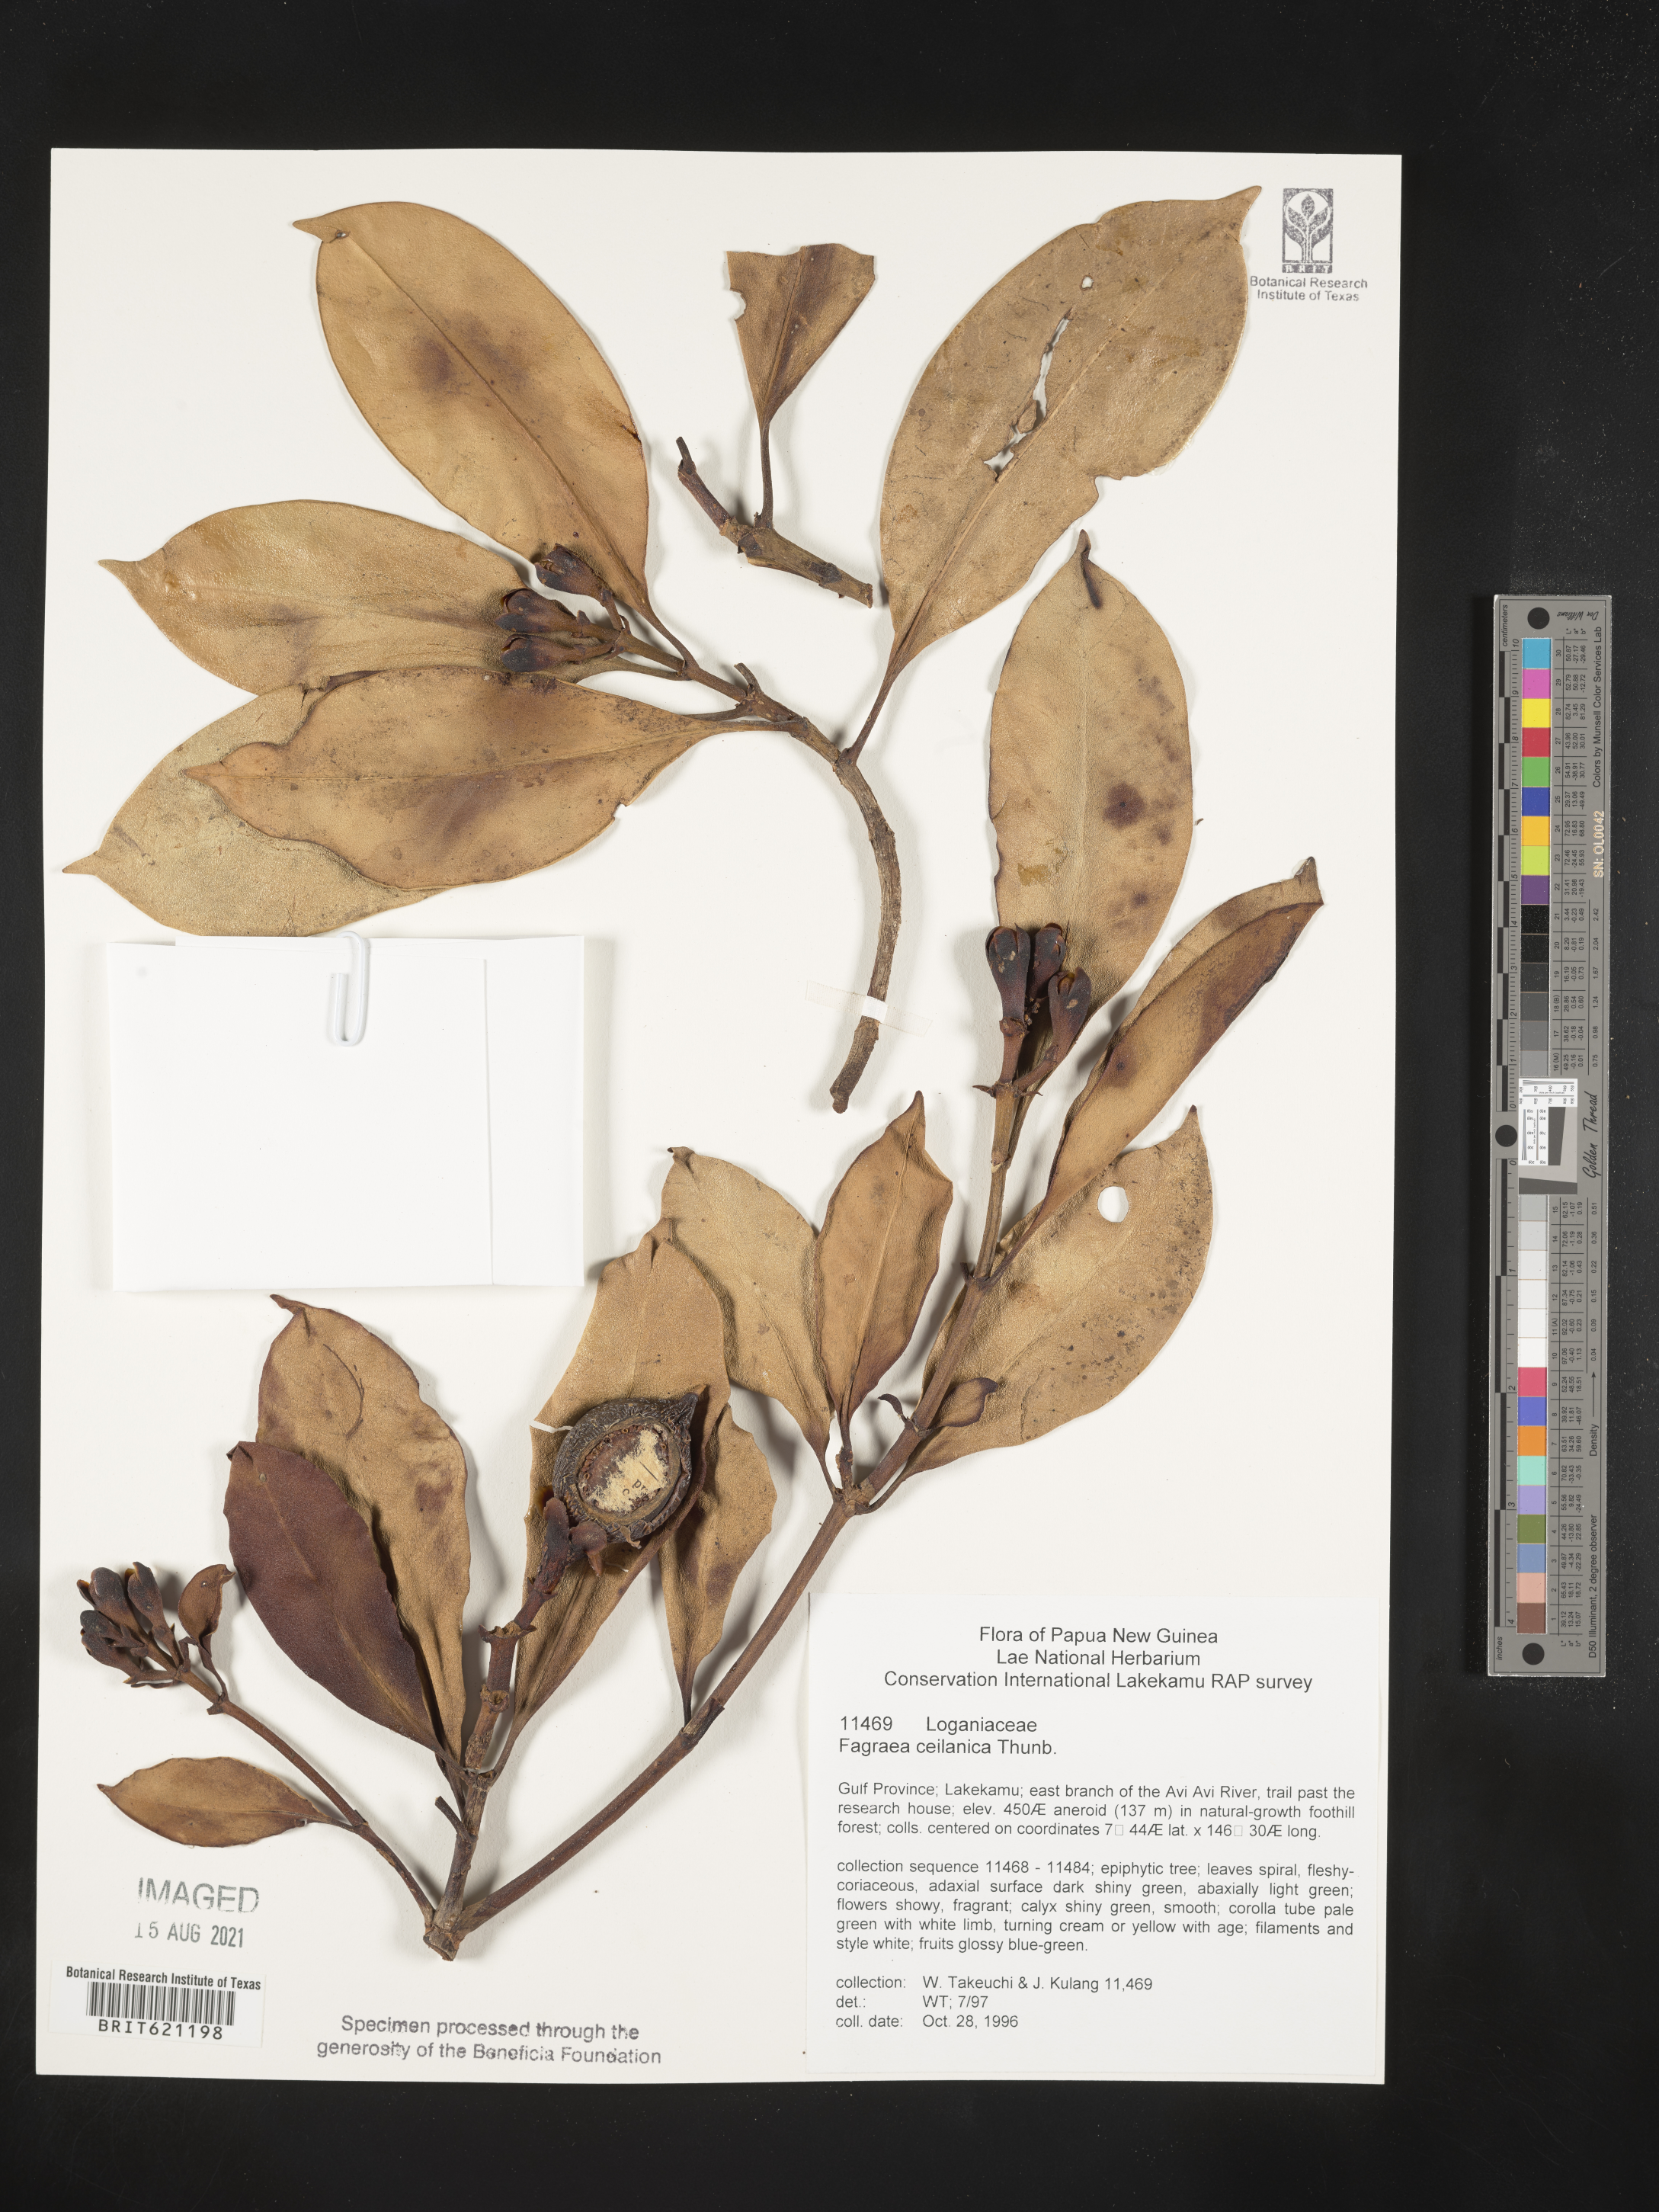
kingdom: Plantae
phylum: Tracheophyta
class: Magnoliopsida
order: Gentianales
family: Gentianaceae
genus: Fagraea
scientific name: Fagraea ceilanica
